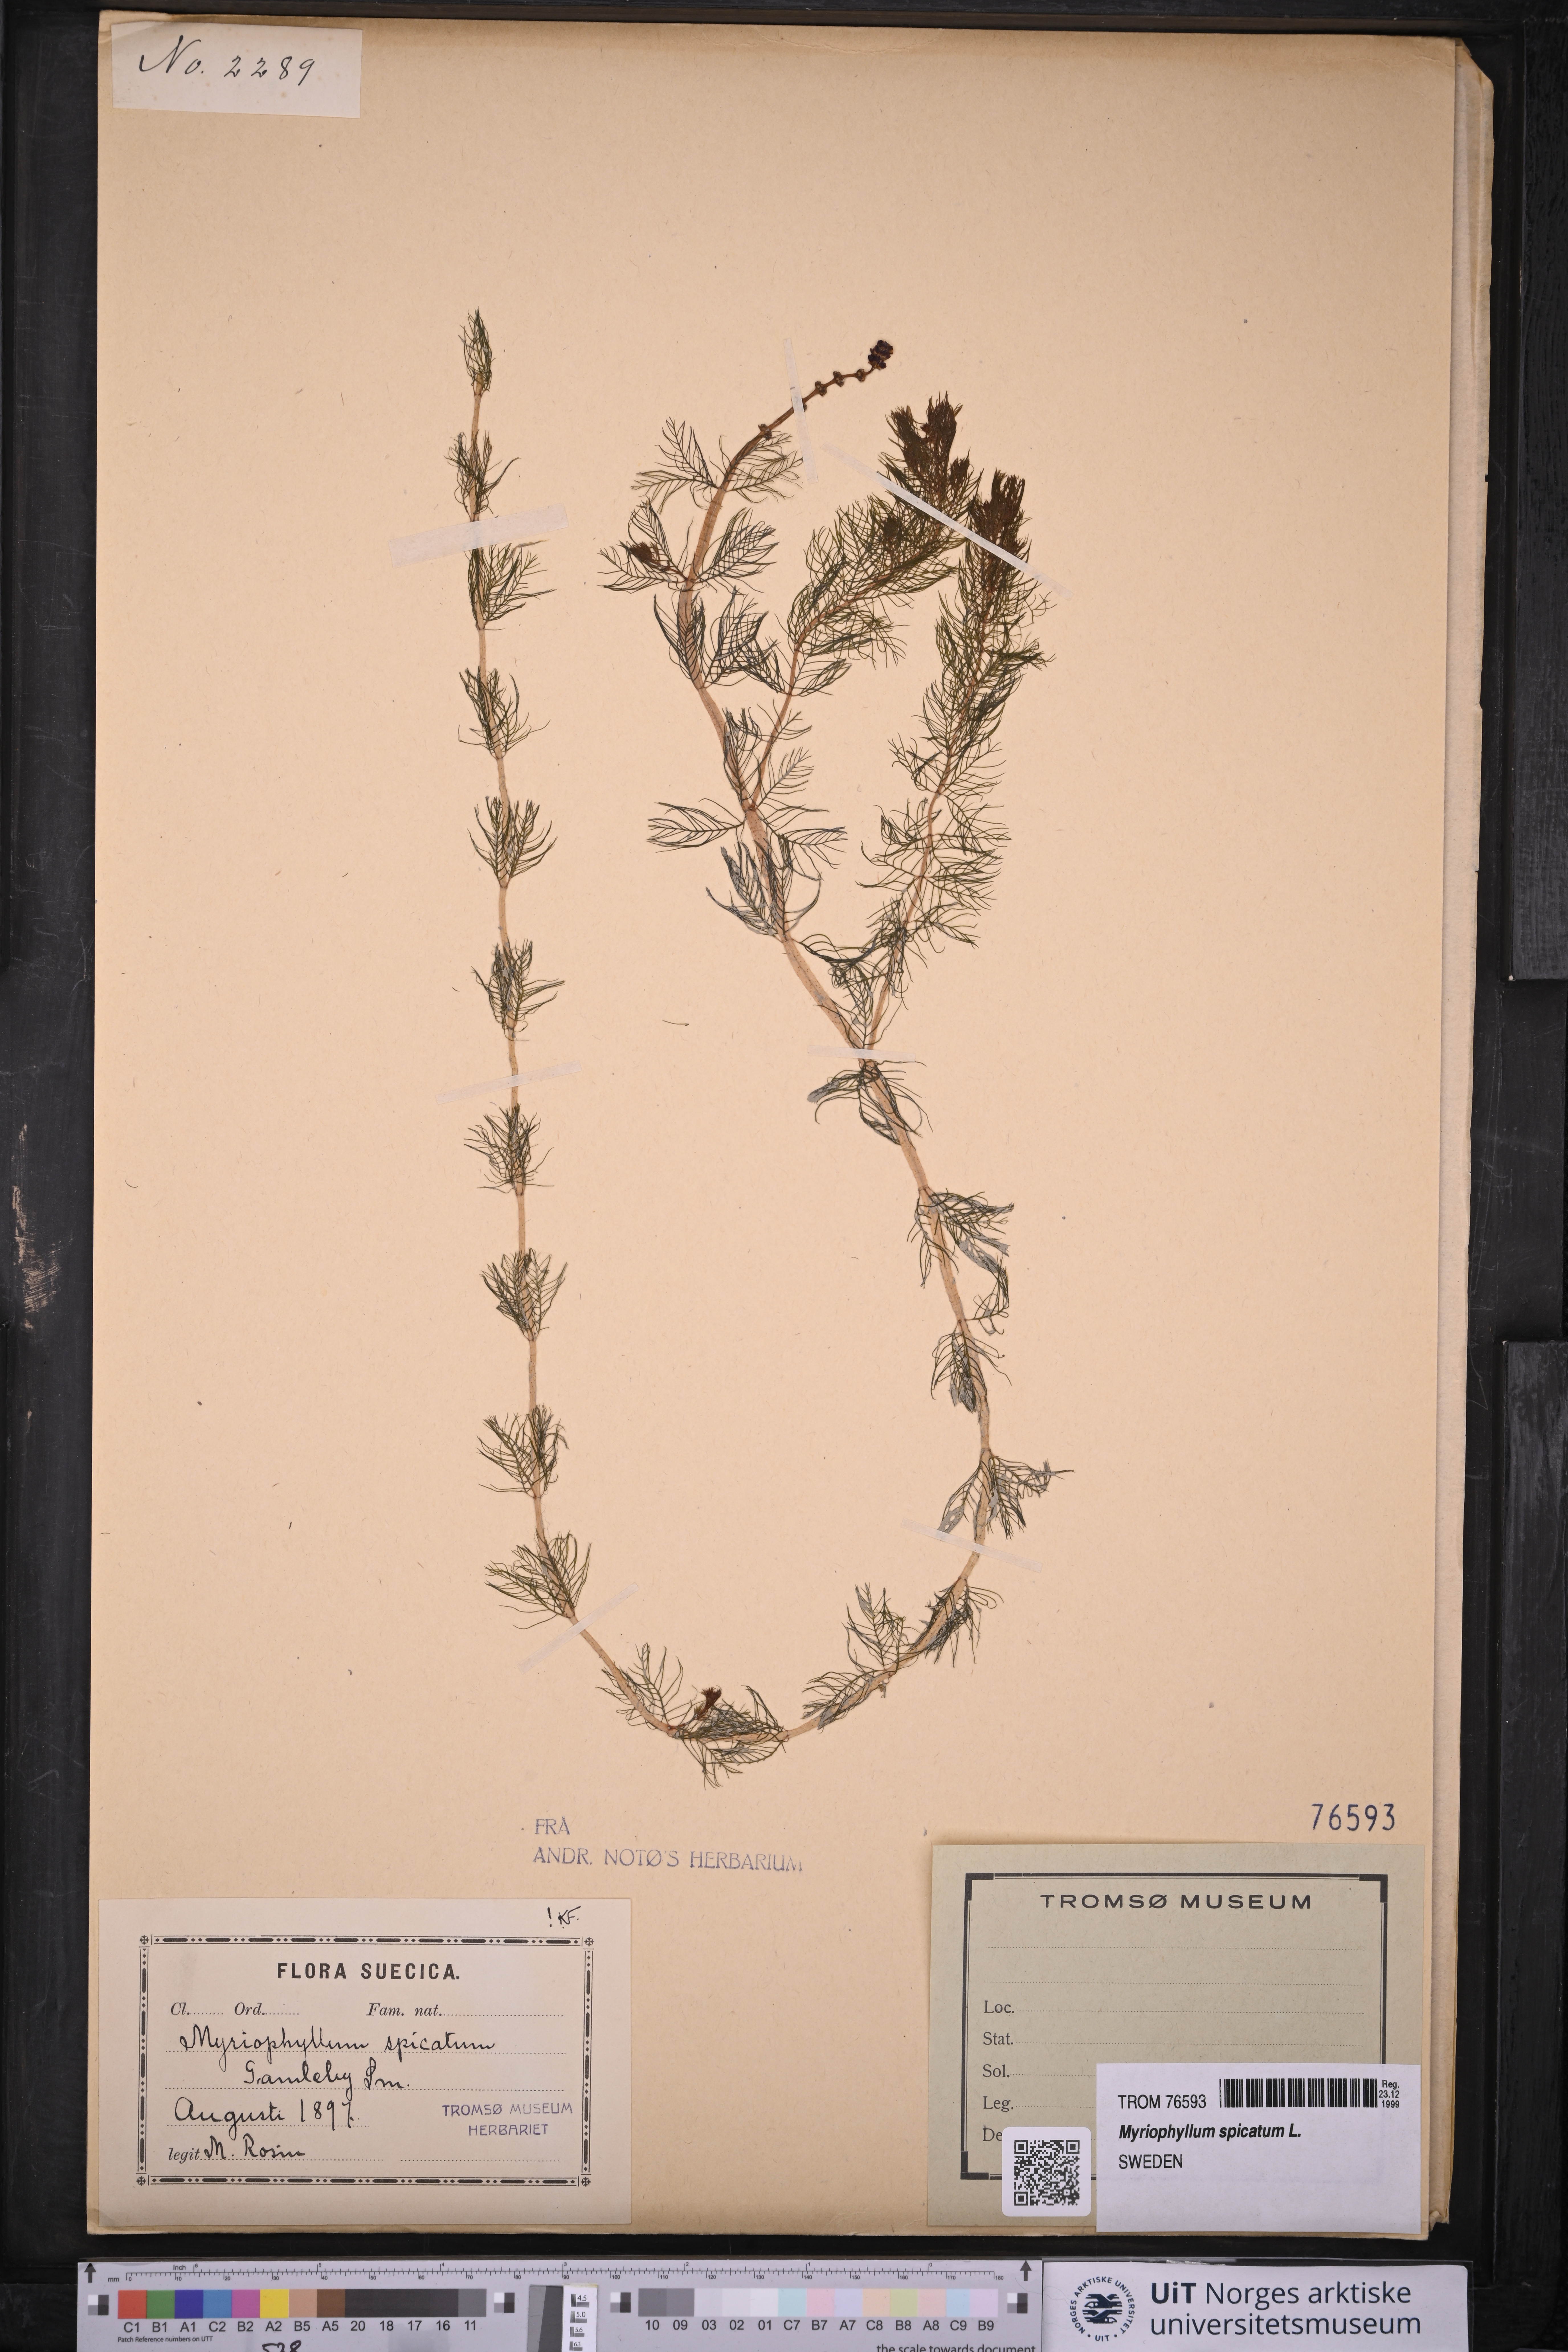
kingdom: Plantae
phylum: Tracheophyta
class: Magnoliopsida
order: Saxifragales
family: Haloragaceae
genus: Myriophyllum
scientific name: Myriophyllum spicatum
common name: Spiked water-milfoil
